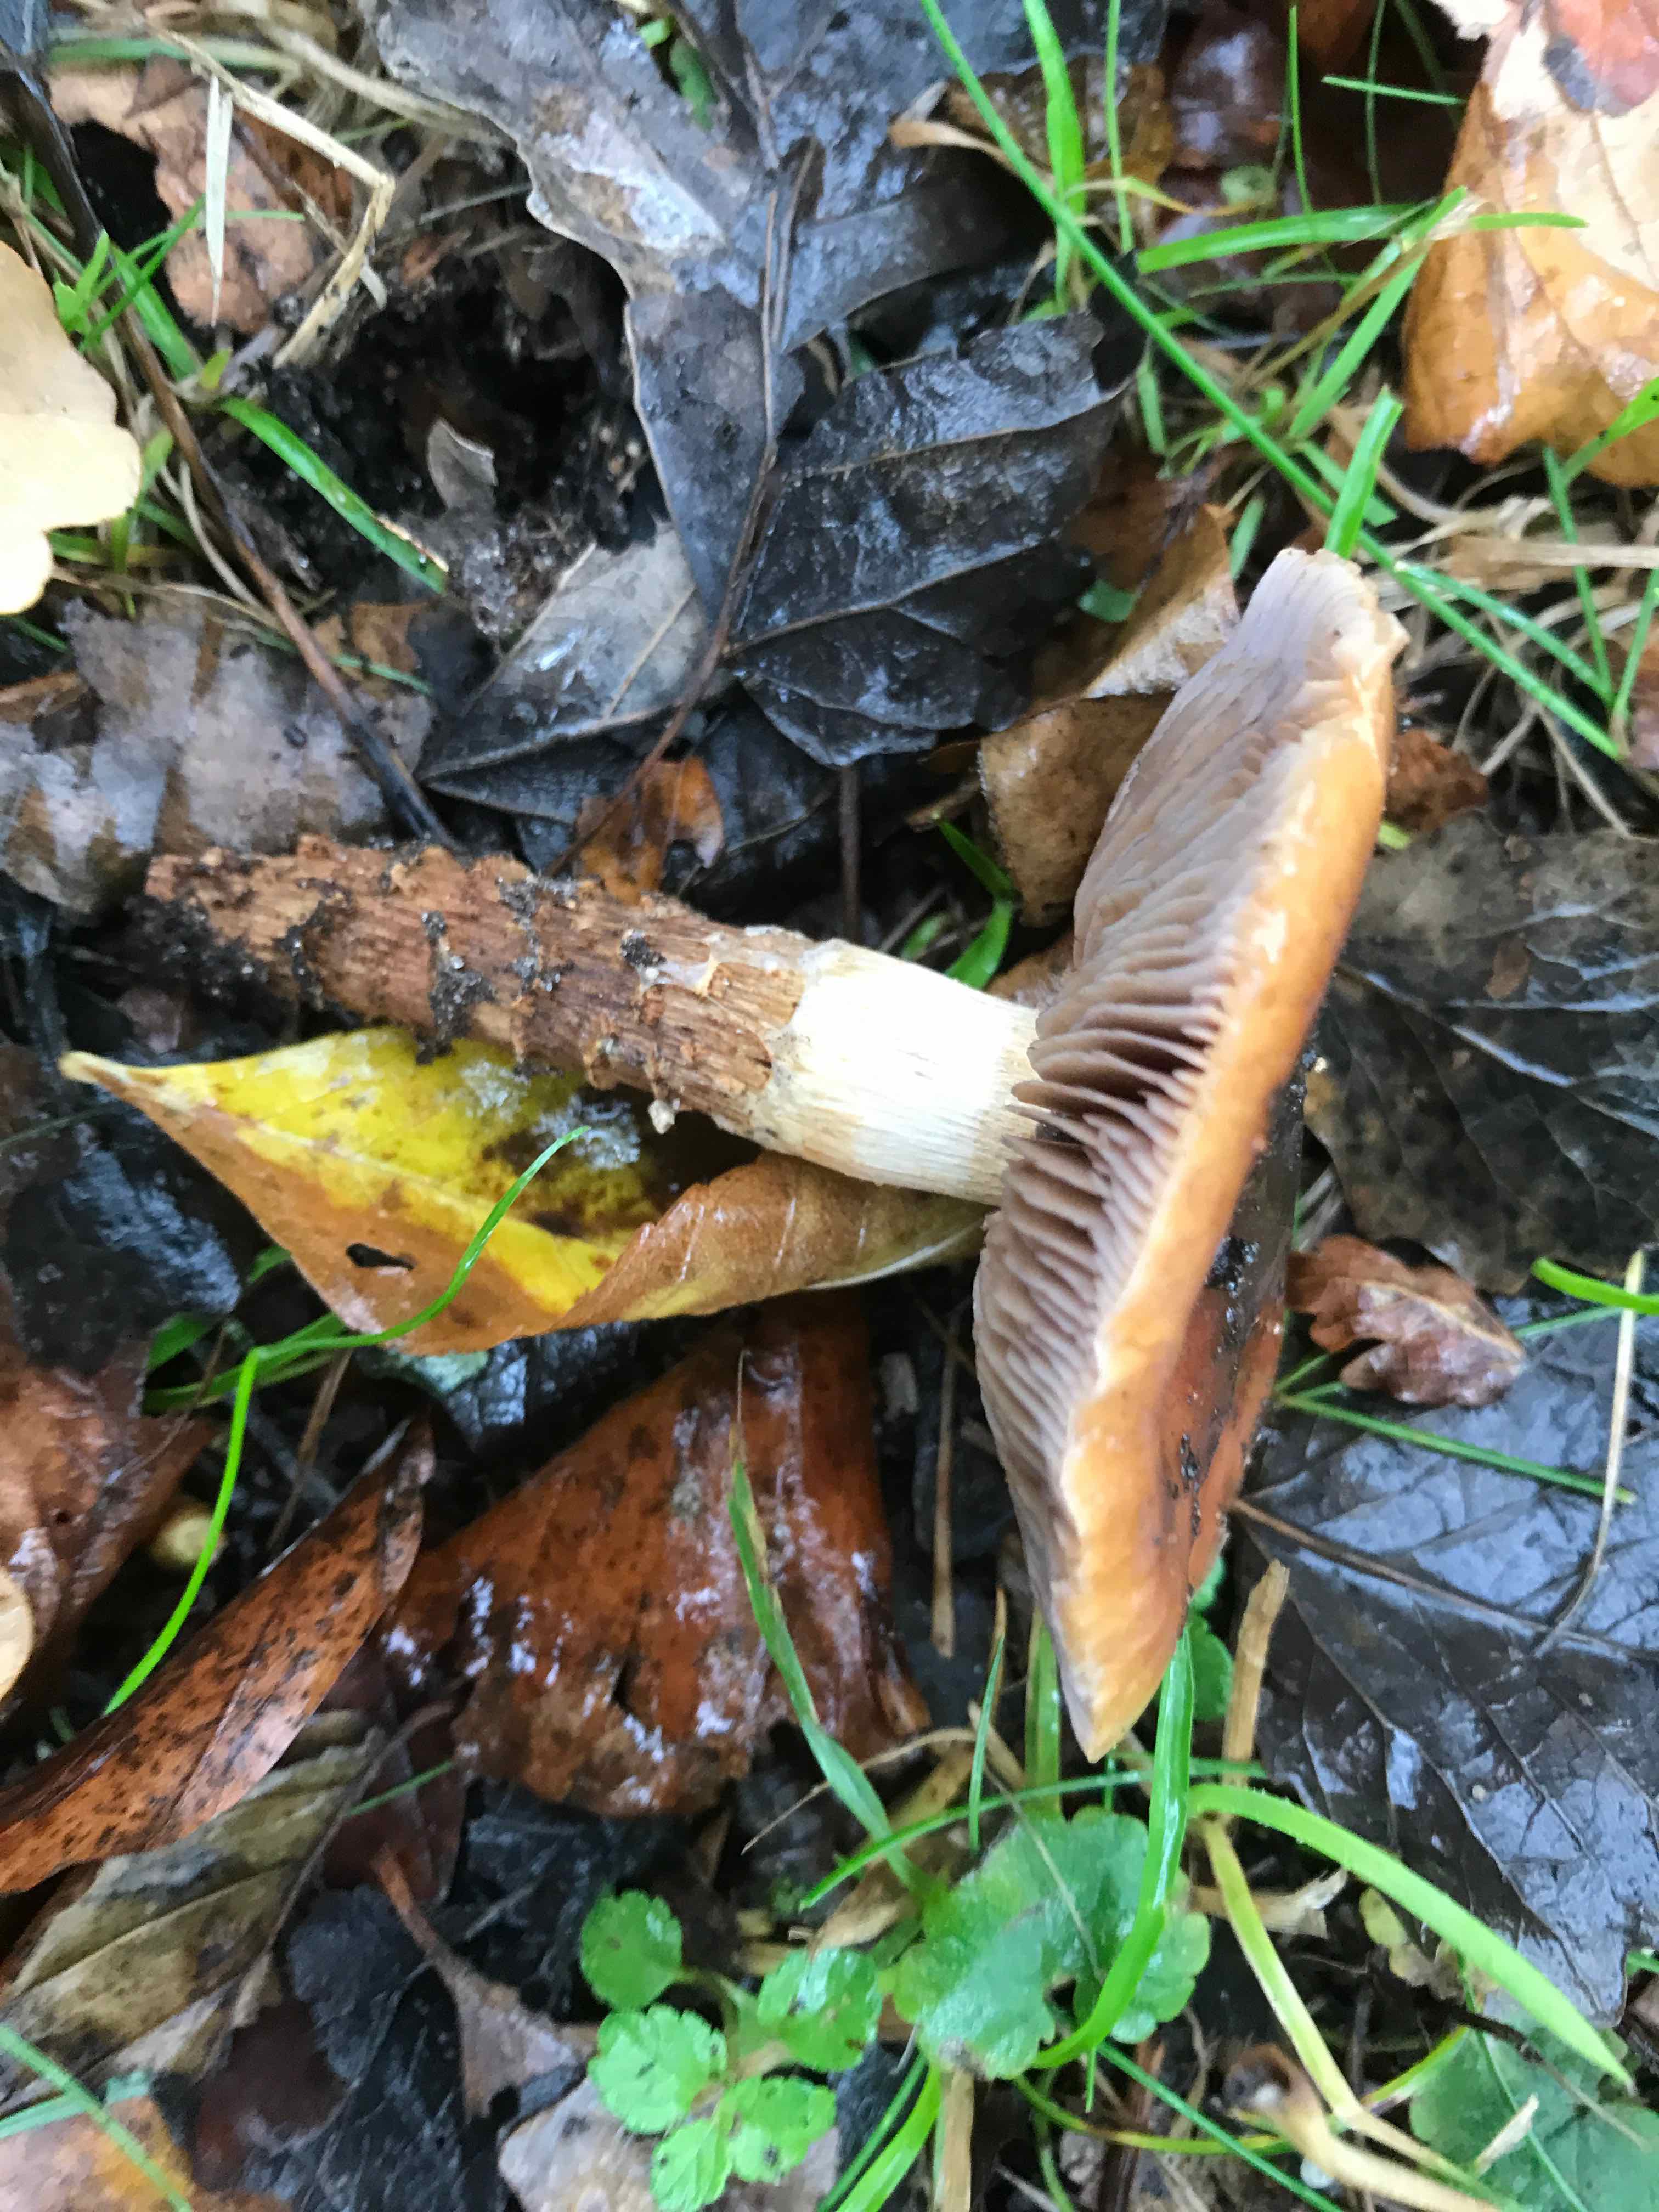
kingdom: Fungi
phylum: Basidiomycota
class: Agaricomycetes
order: Agaricales
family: Cortinariaceae
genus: Cortinarius
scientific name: Cortinarius trivialis
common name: brunslimet slørhat
